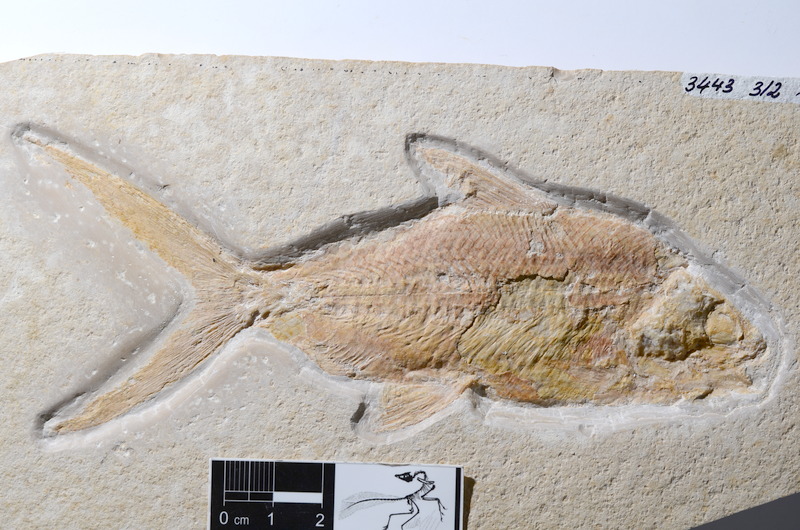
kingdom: Animalia
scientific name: Animalia
